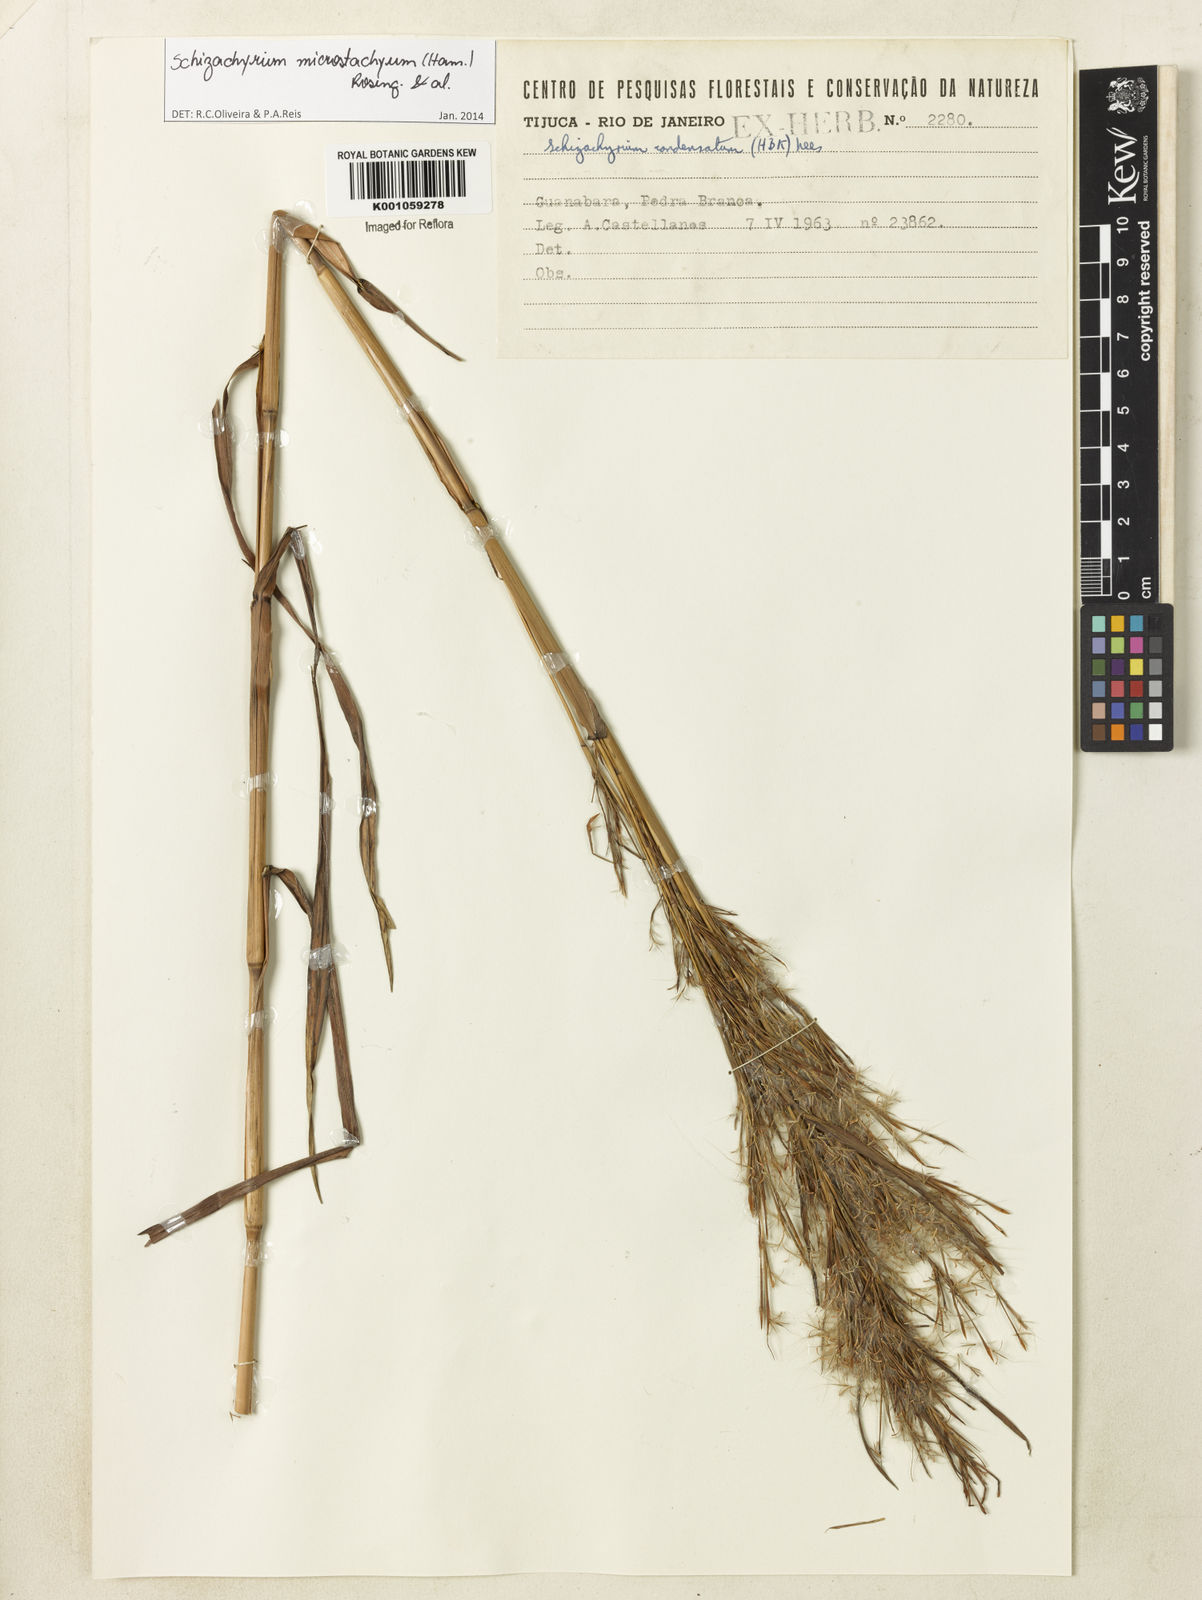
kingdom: Plantae
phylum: Tracheophyta
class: Liliopsida
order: Poales
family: Poaceae
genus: Schizachyrium
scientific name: Schizachyrium
